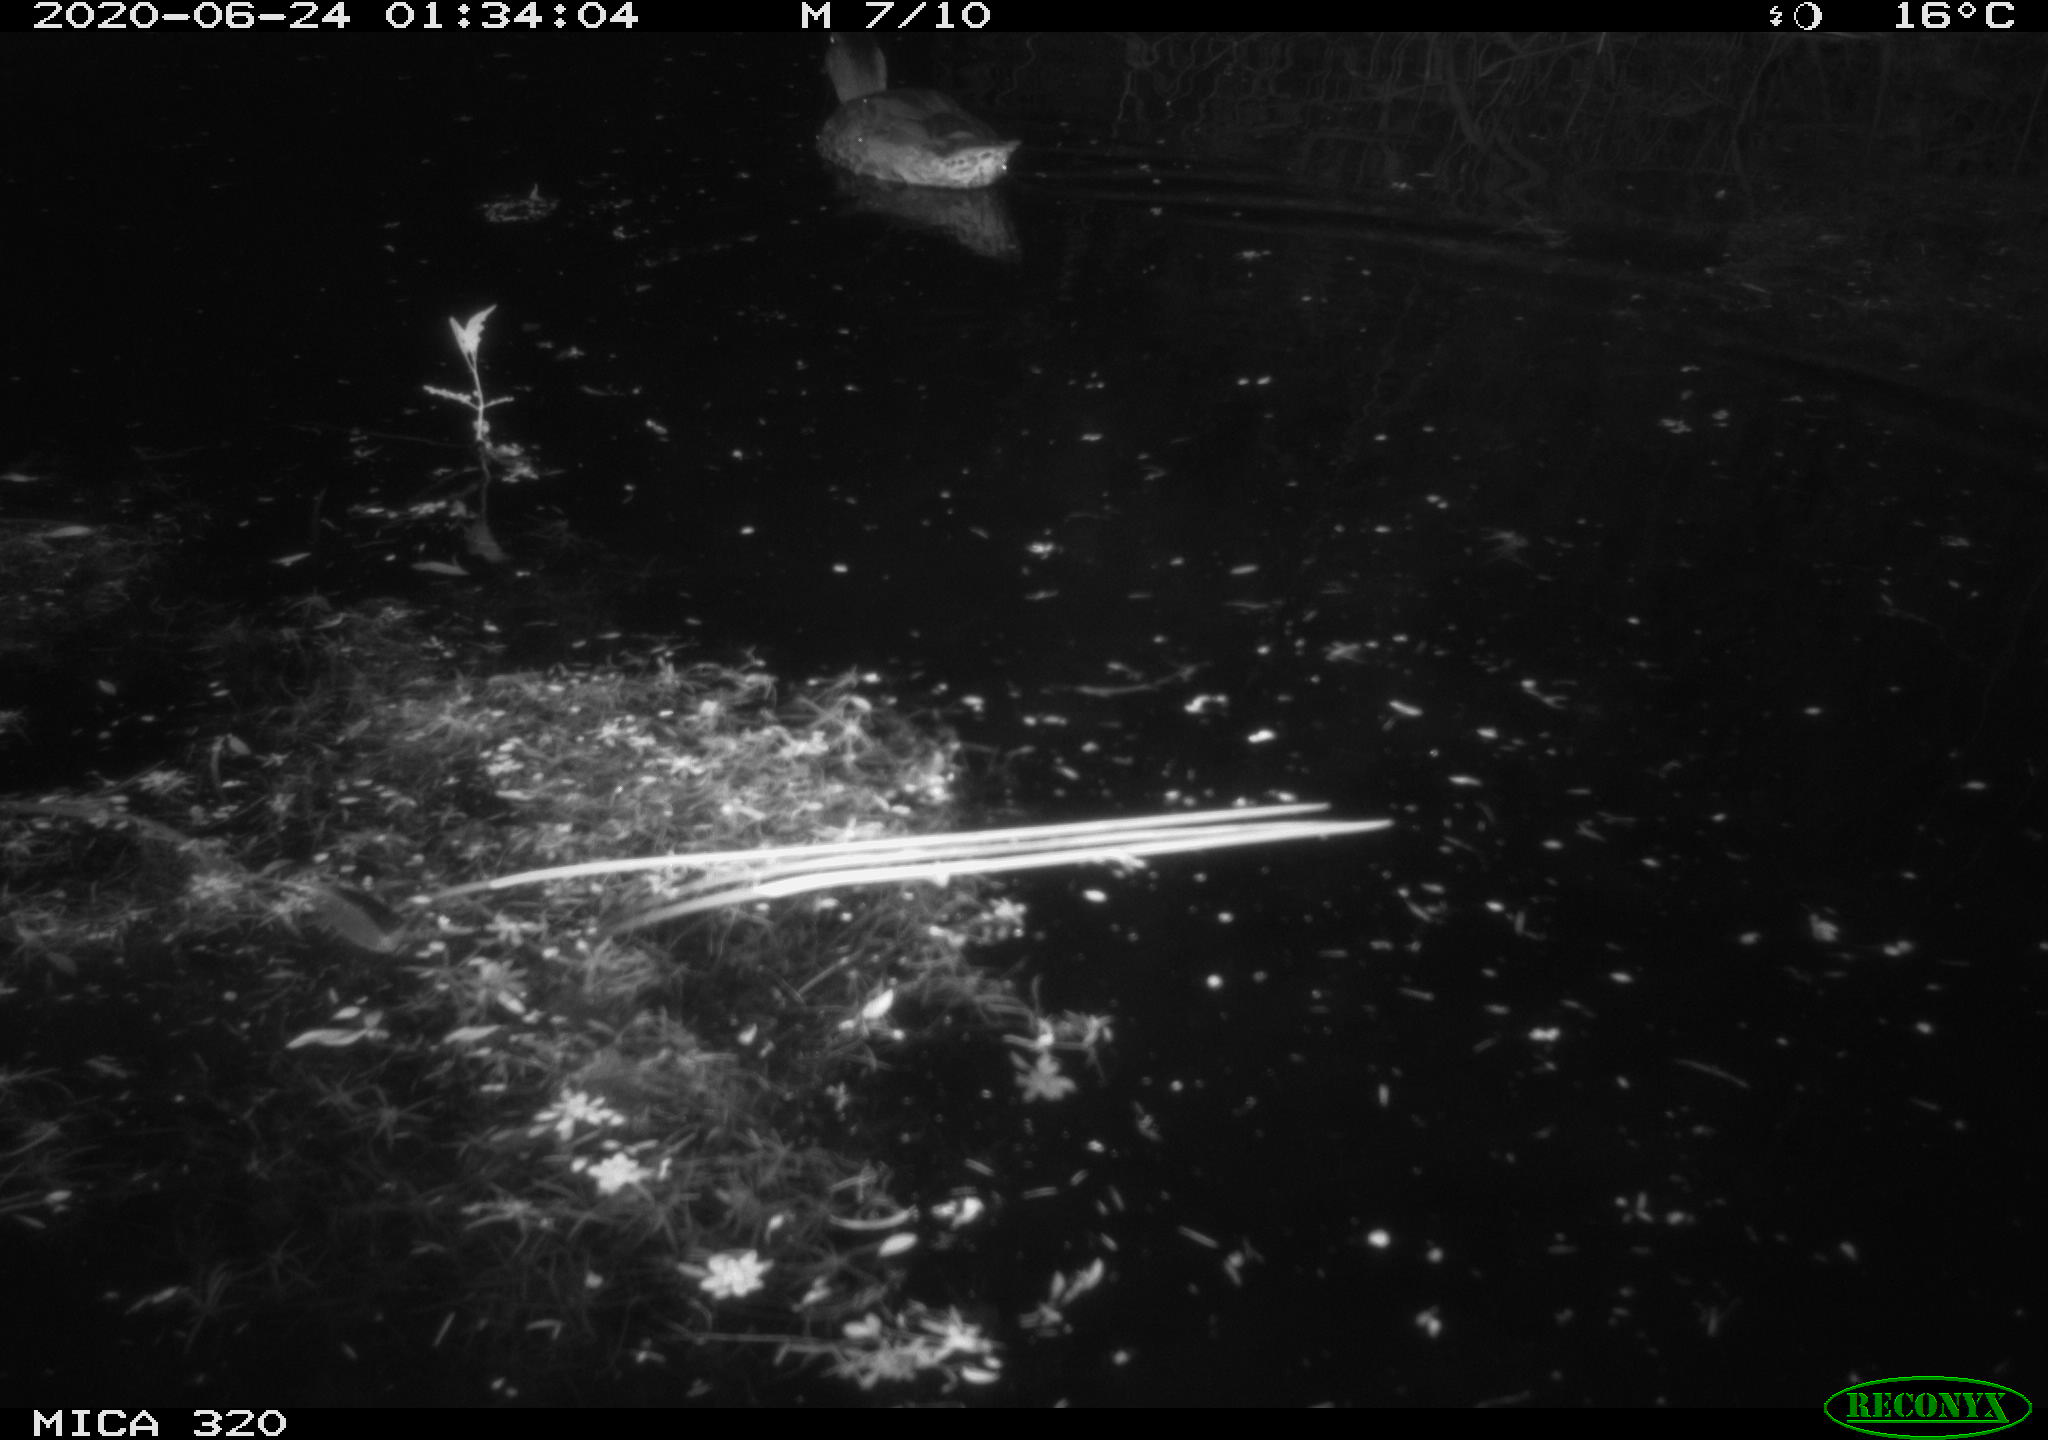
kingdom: Animalia
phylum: Chordata
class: Aves
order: Anseriformes
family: Anatidae
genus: Anas
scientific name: Anas platyrhynchos
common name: Mallard
